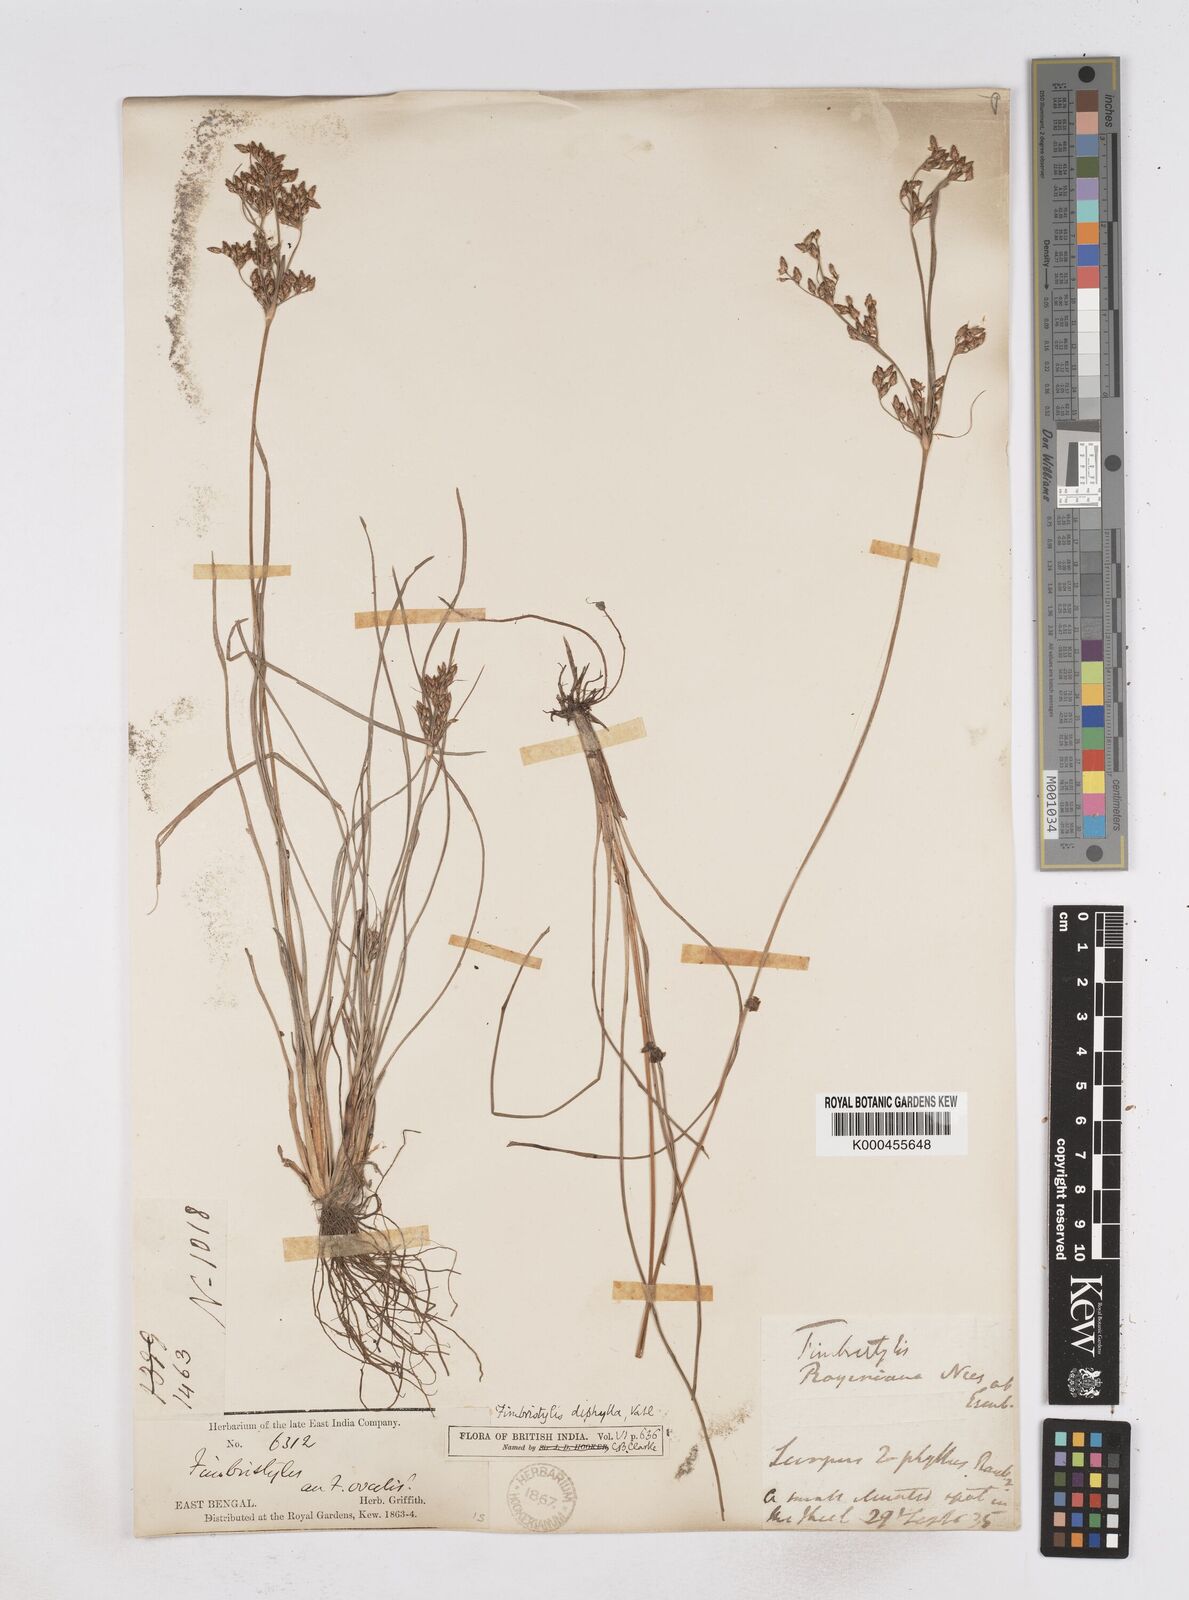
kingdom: Plantae
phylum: Tracheophyta
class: Liliopsida
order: Poales
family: Cyperaceae
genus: Fimbristylis
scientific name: Fimbristylis dichotoma
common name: Forked fimbry
